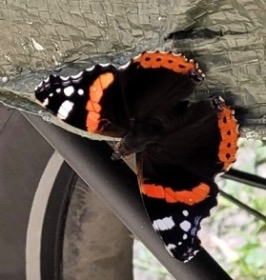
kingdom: Animalia
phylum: Arthropoda
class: Insecta
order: Lepidoptera
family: Nymphalidae
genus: Vanessa
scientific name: Vanessa atalanta
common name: Admiral
